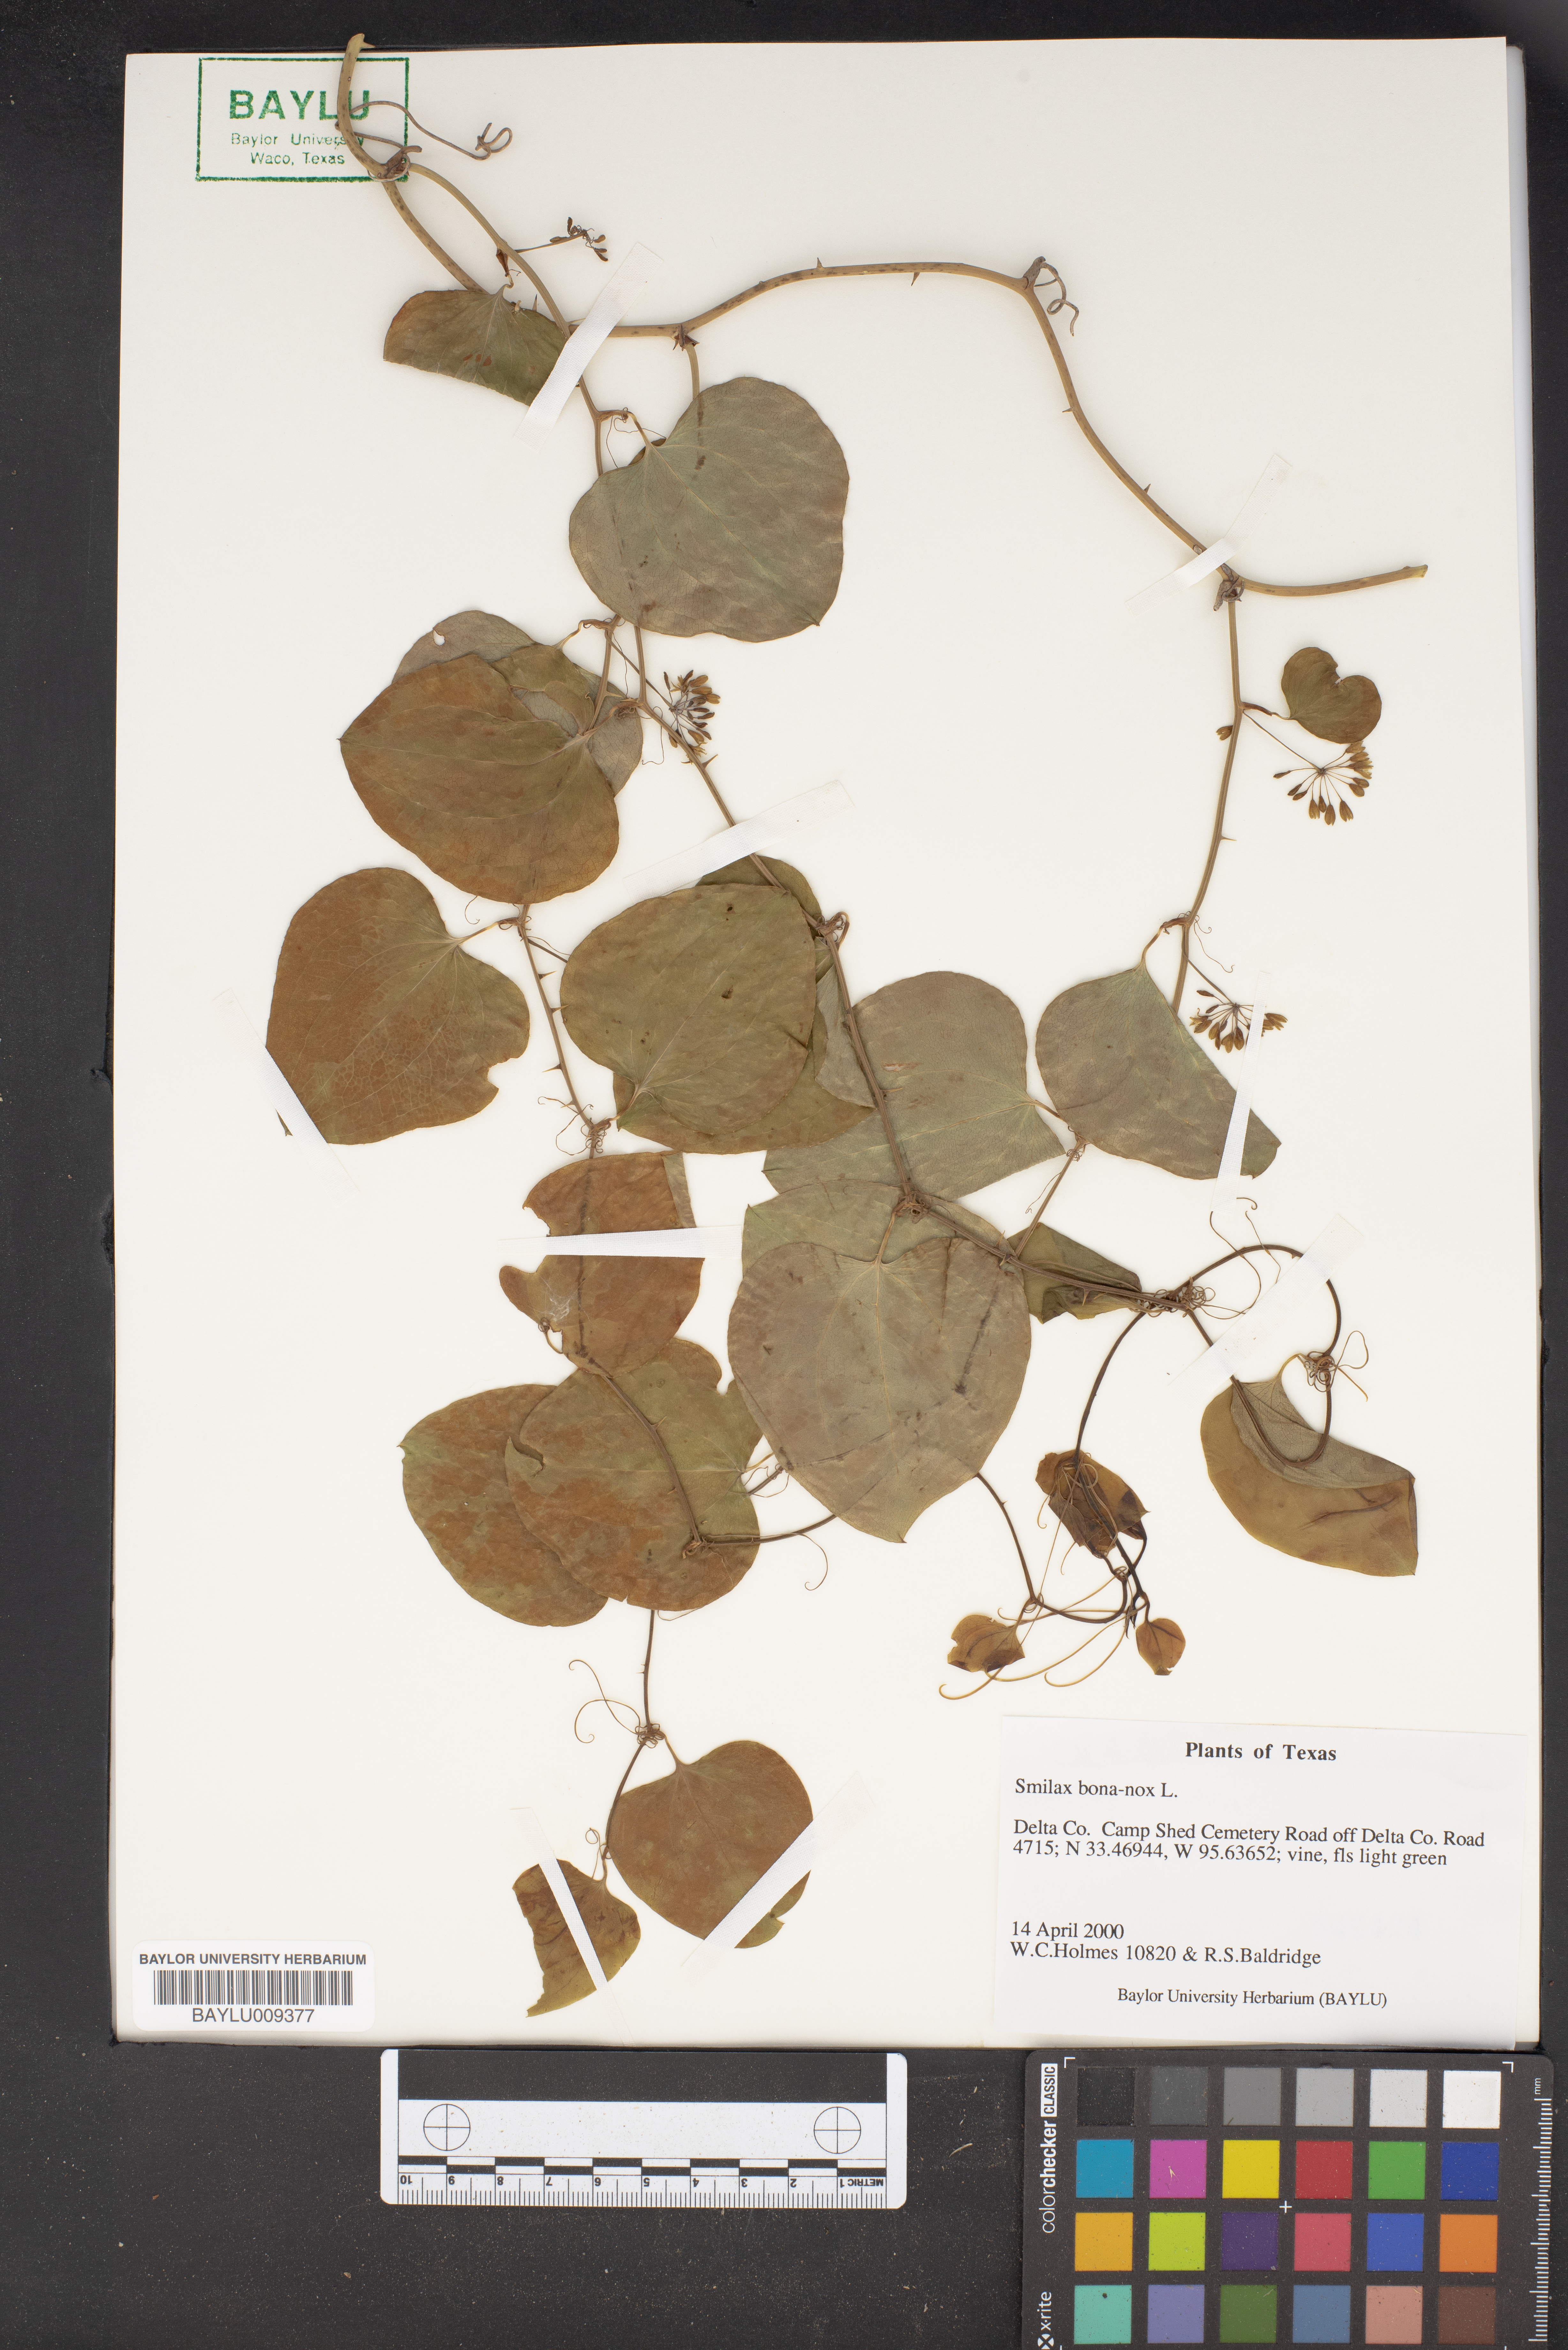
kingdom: Plantae
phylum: Tracheophyta
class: Liliopsida
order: Liliales
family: Smilacaceae
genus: Smilax
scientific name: Smilax bona-nox
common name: Catbrier
